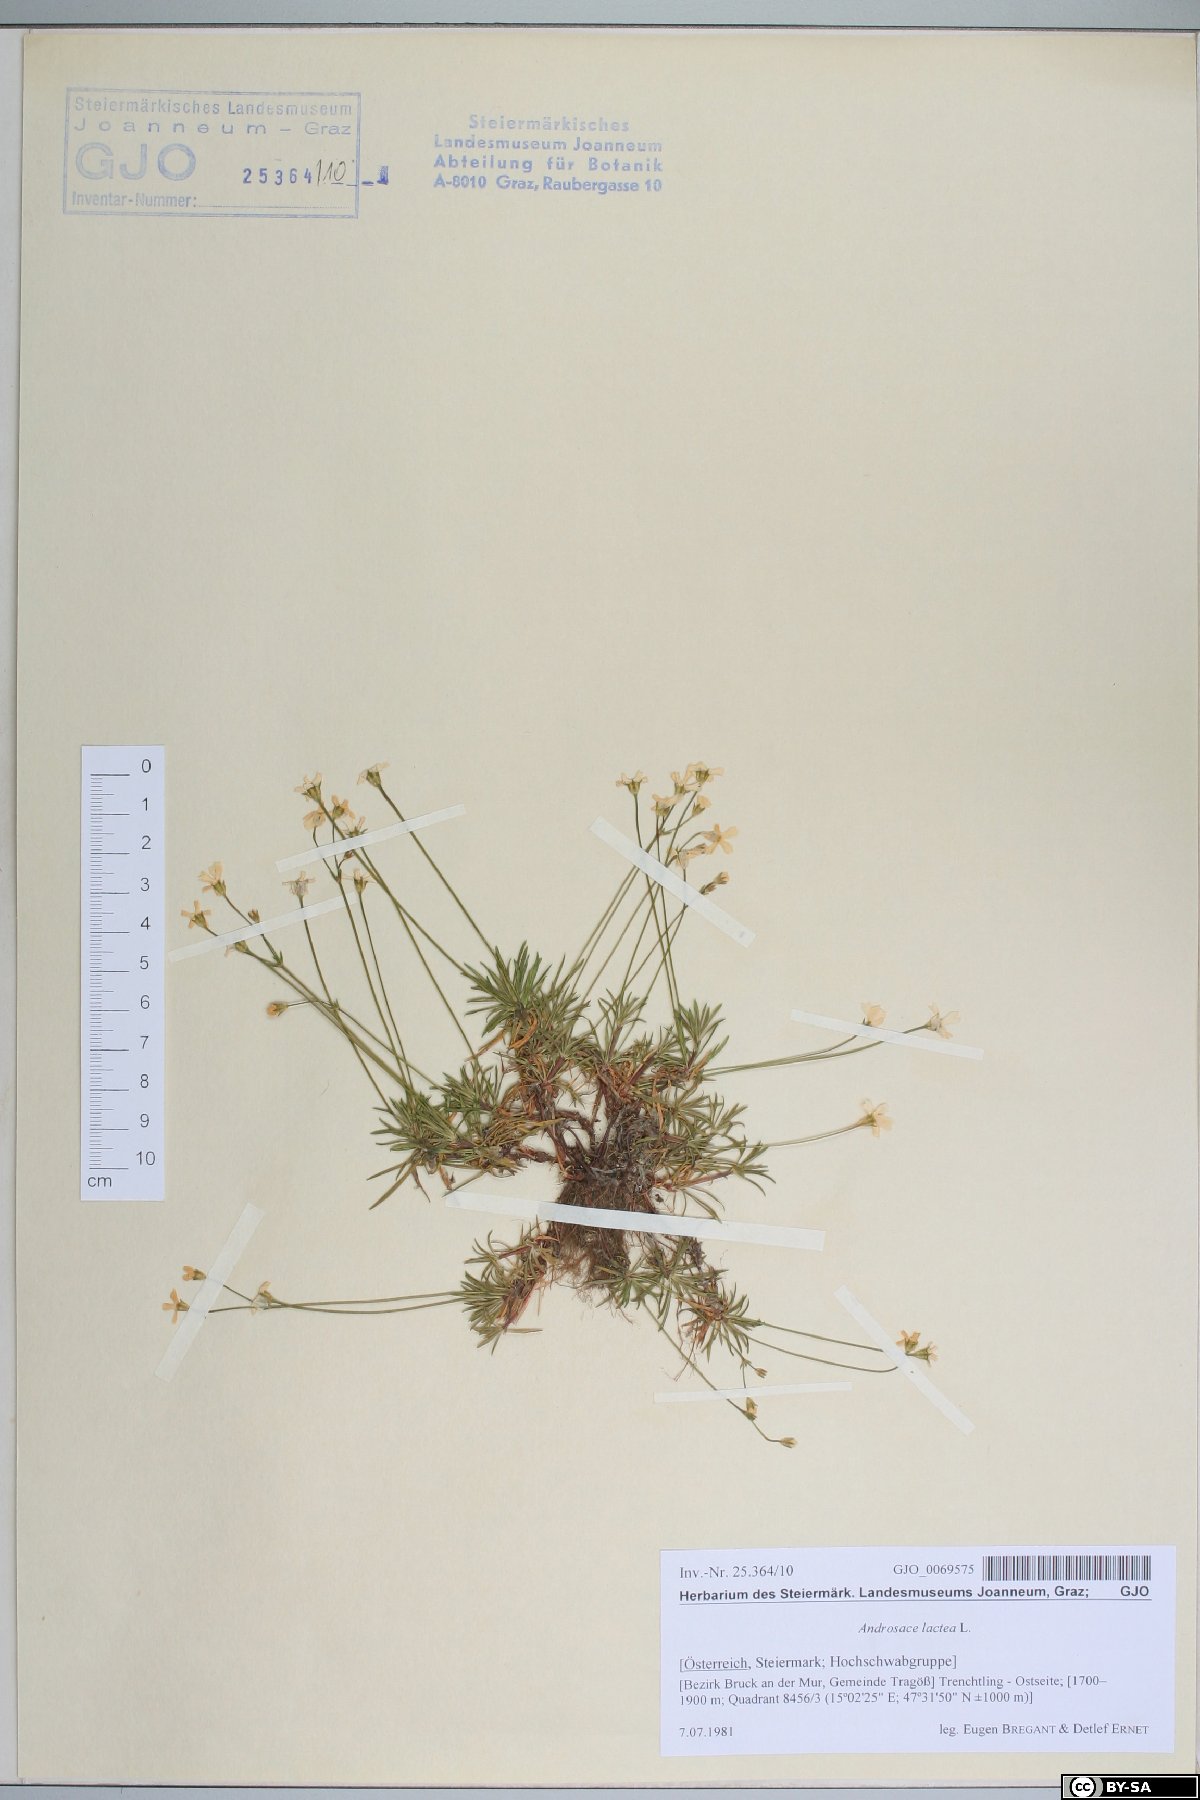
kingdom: Plantae
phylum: Tracheophyta
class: Magnoliopsida
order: Ericales
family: Primulaceae
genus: Androsace
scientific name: Androsace lactea
